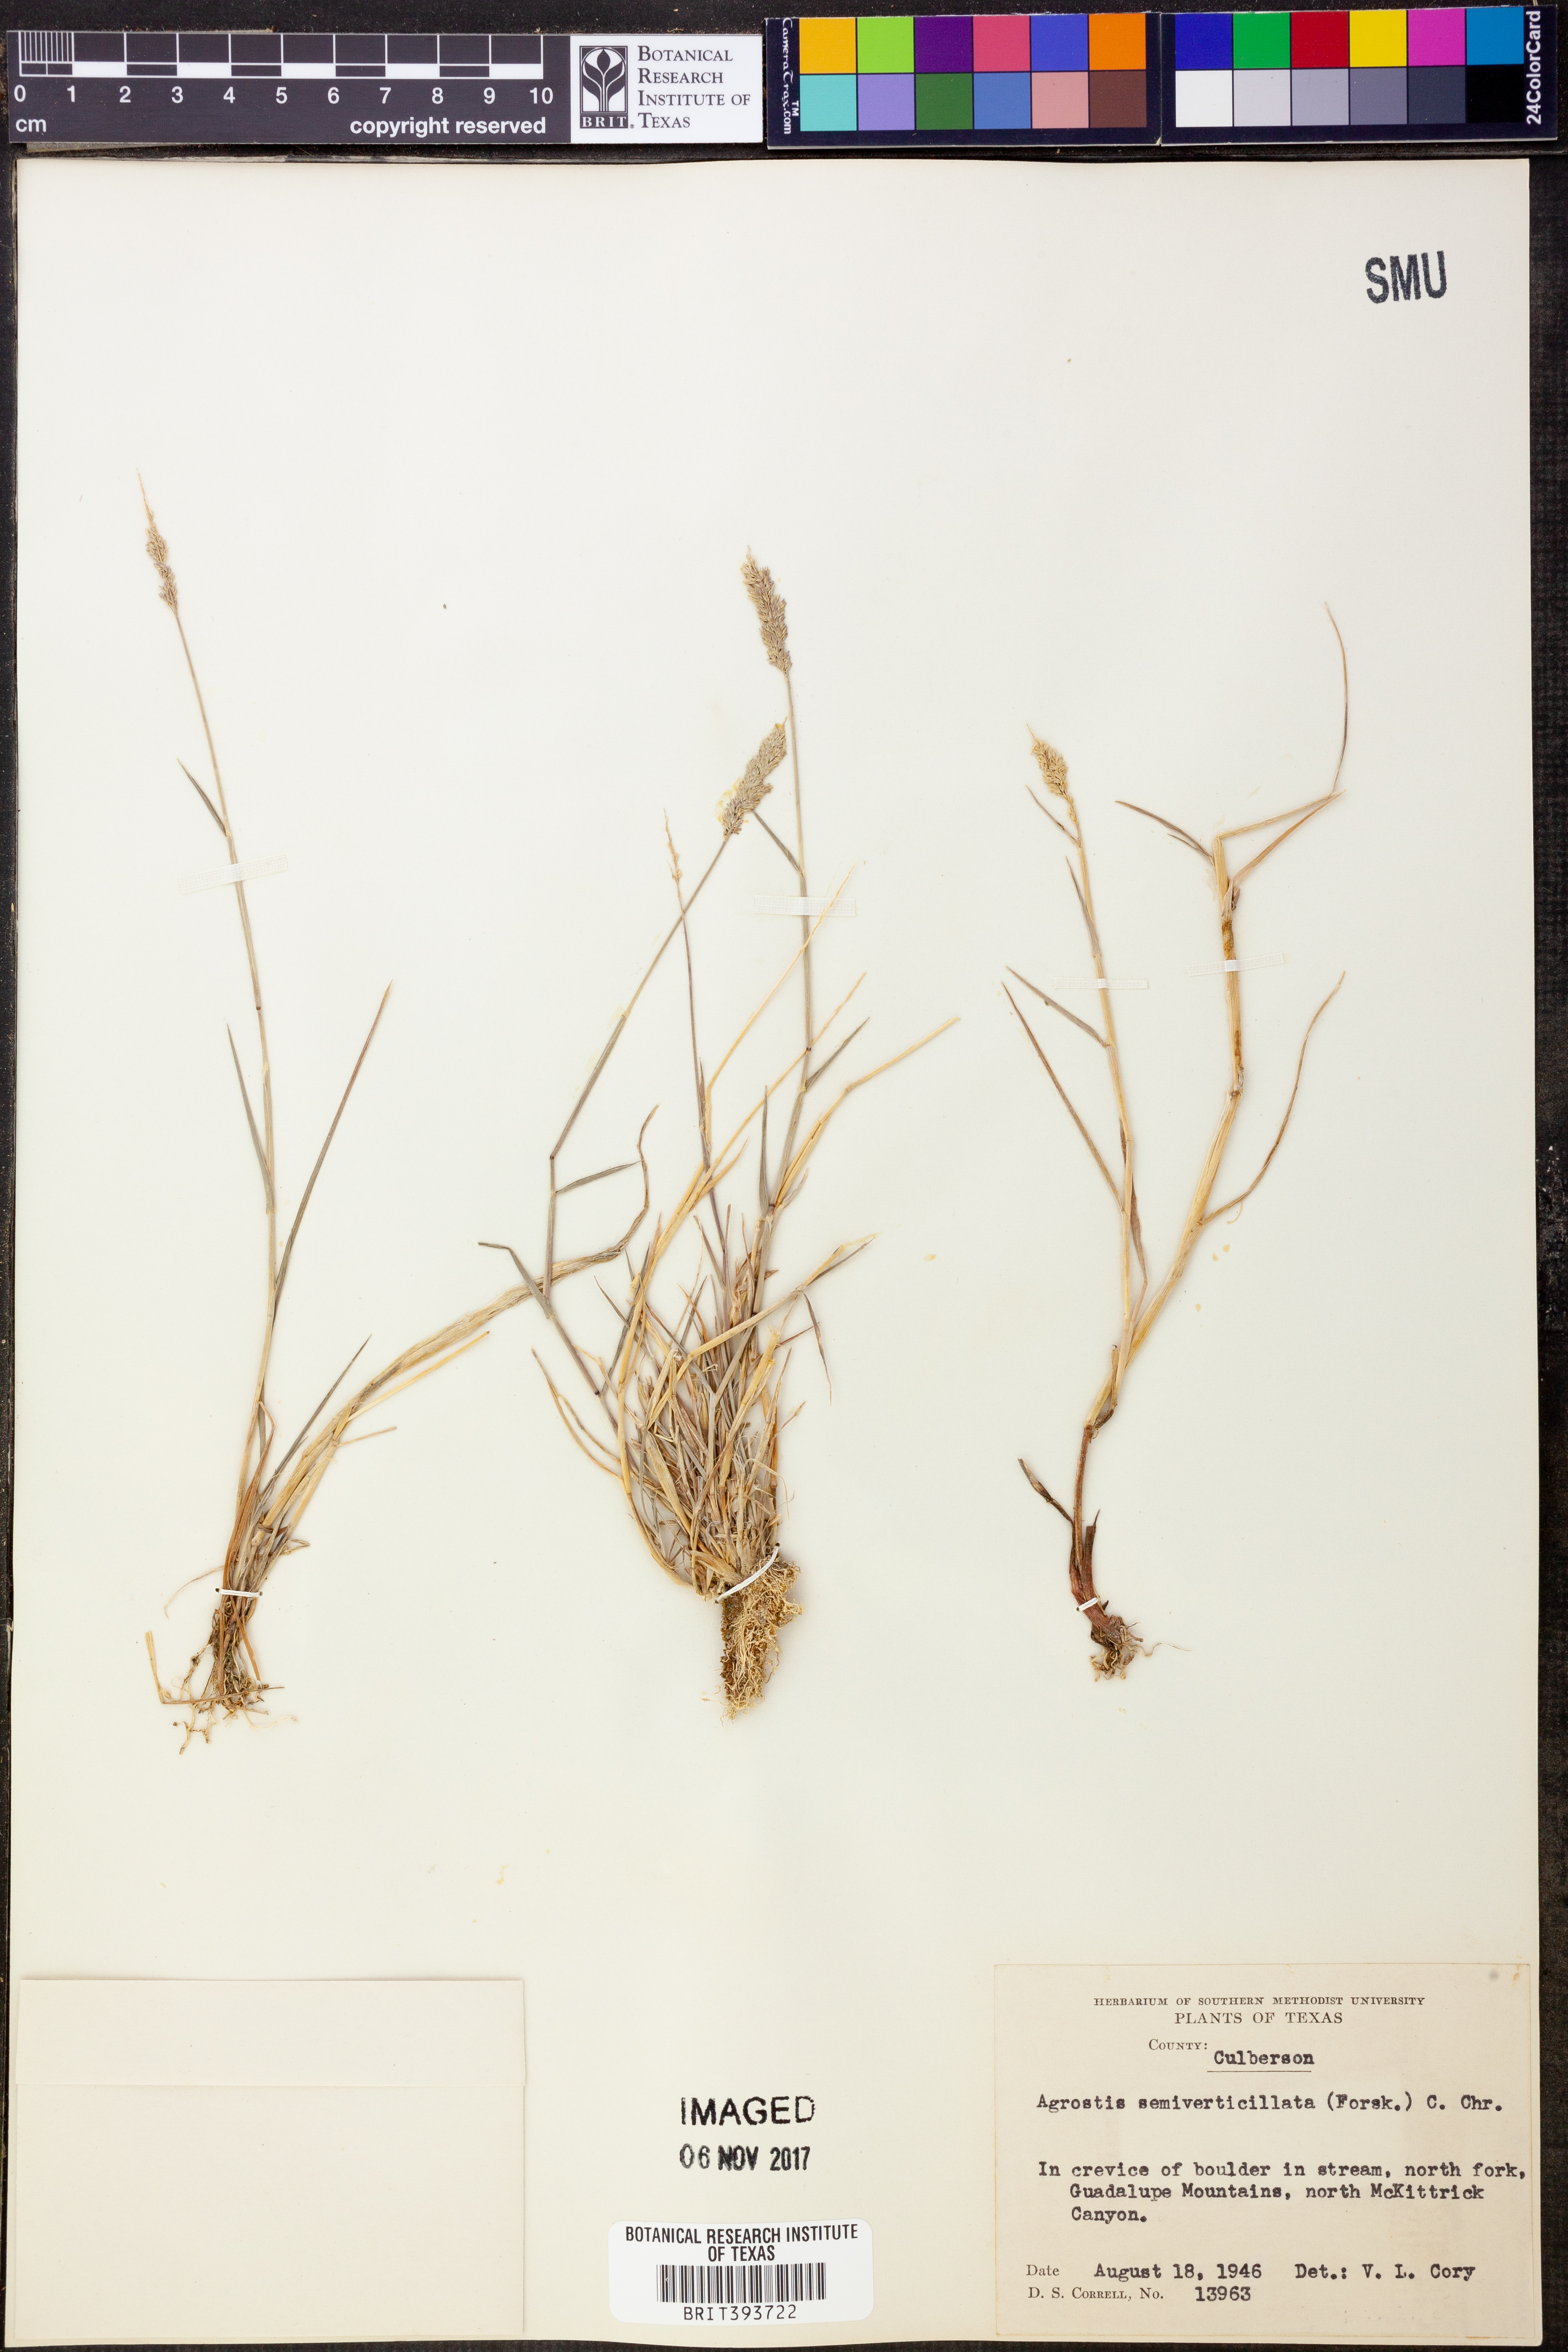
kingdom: Plantae
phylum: Tracheophyta
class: Liliopsida
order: Poales
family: Poaceae
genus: Polypogon
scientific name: Polypogon viridis
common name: Water bent
